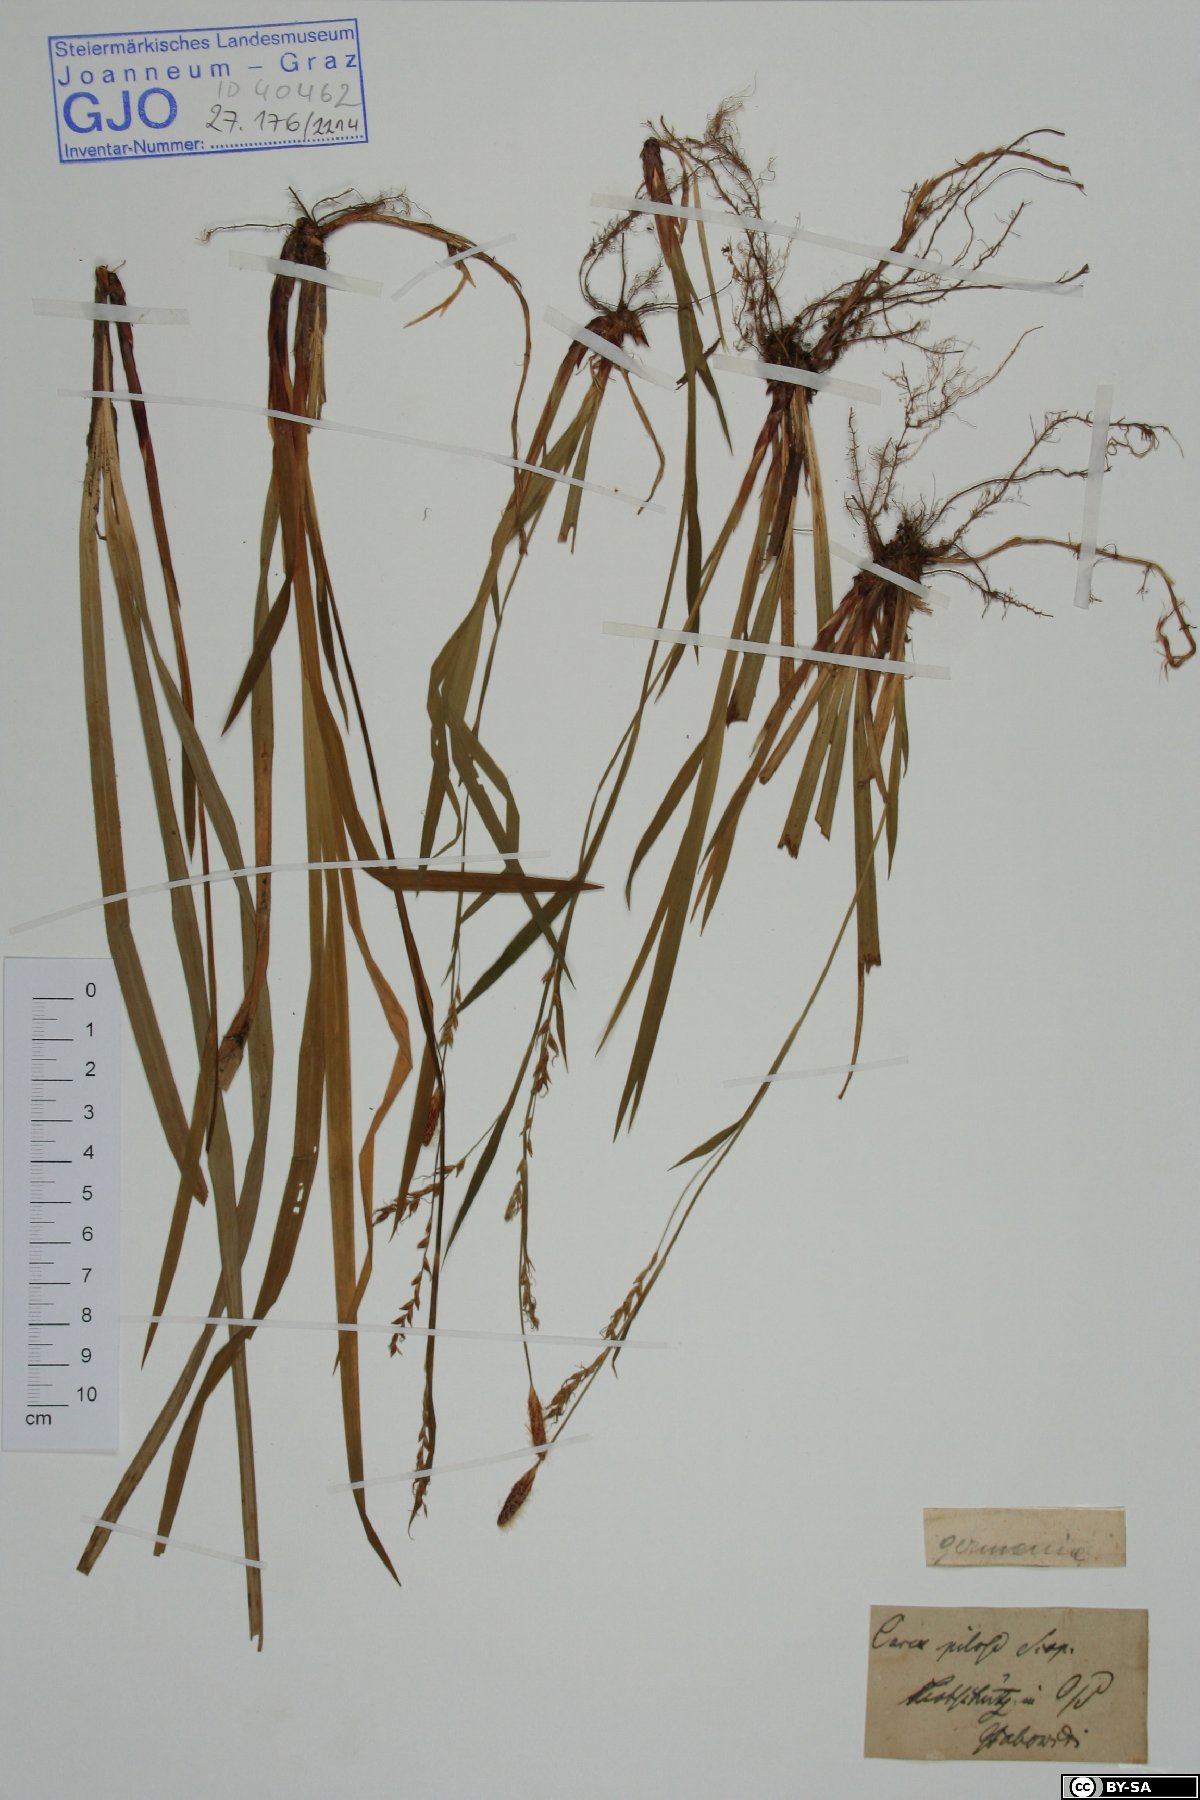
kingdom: Plantae
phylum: Tracheophyta
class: Liliopsida
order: Poales
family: Cyperaceae
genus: Carex
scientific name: Carex pilosa
